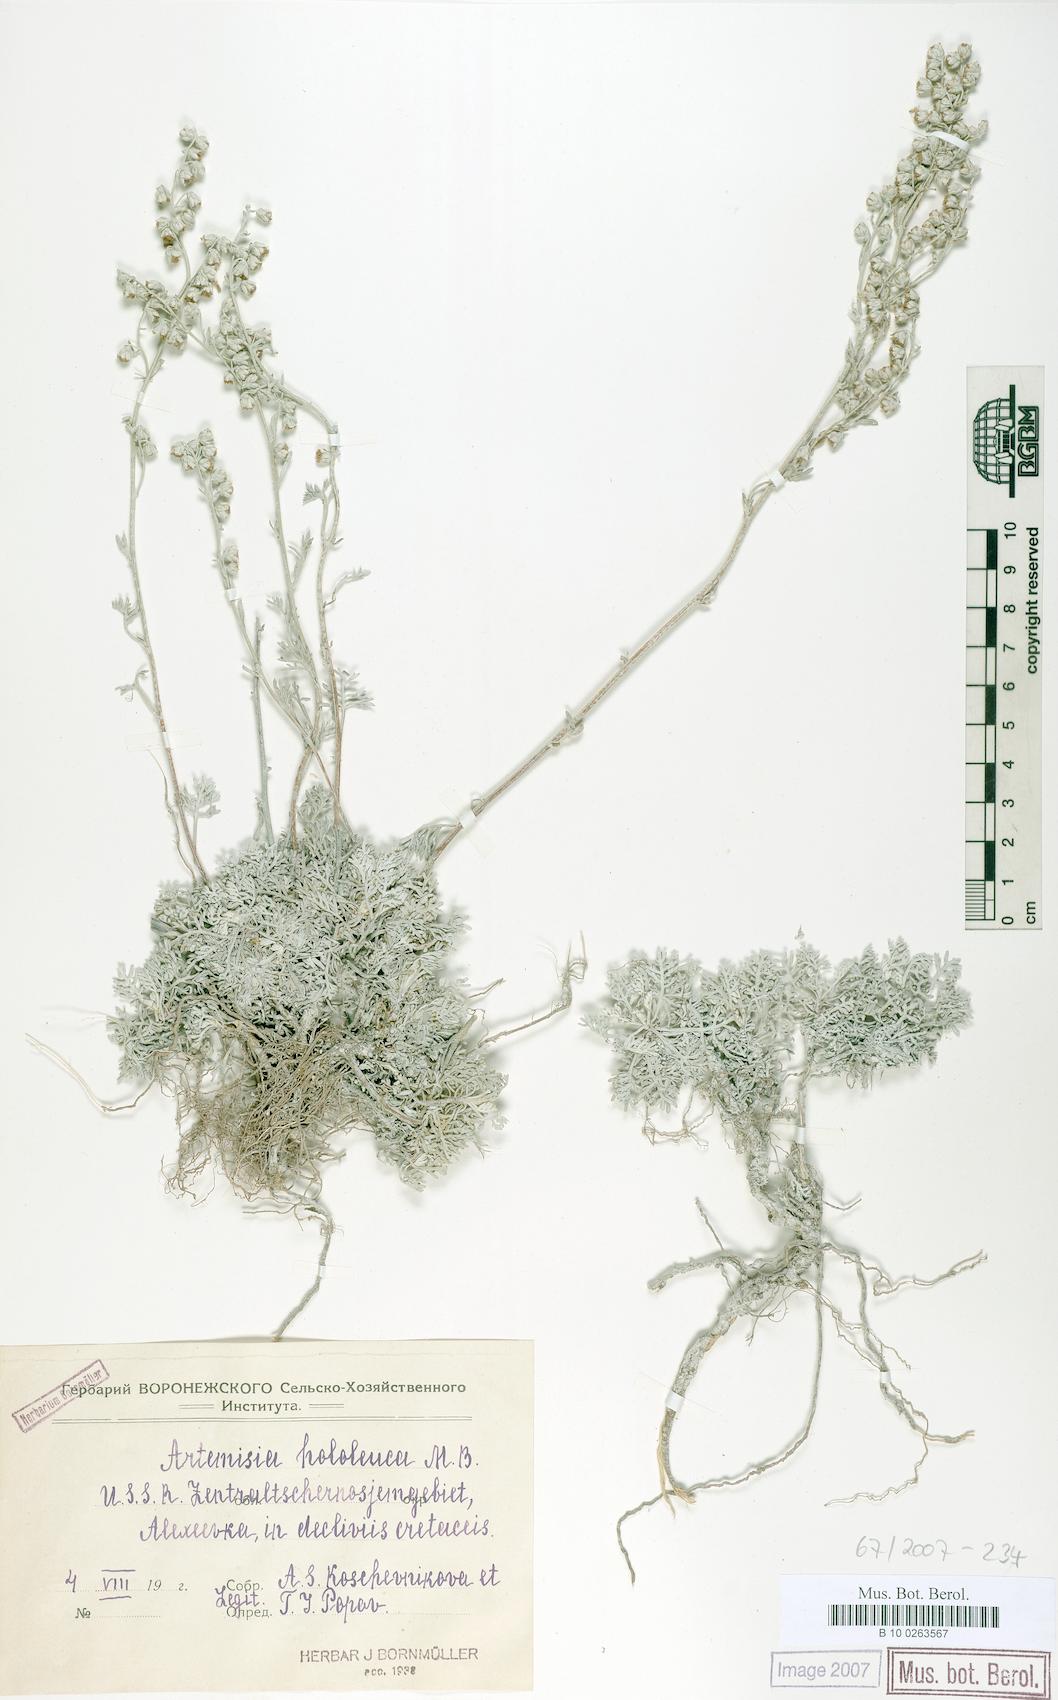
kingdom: Plantae
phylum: Tracheophyta
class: Magnoliopsida
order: Asterales
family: Asteraceae
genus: Artemisia
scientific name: Artemisia hololeuca
